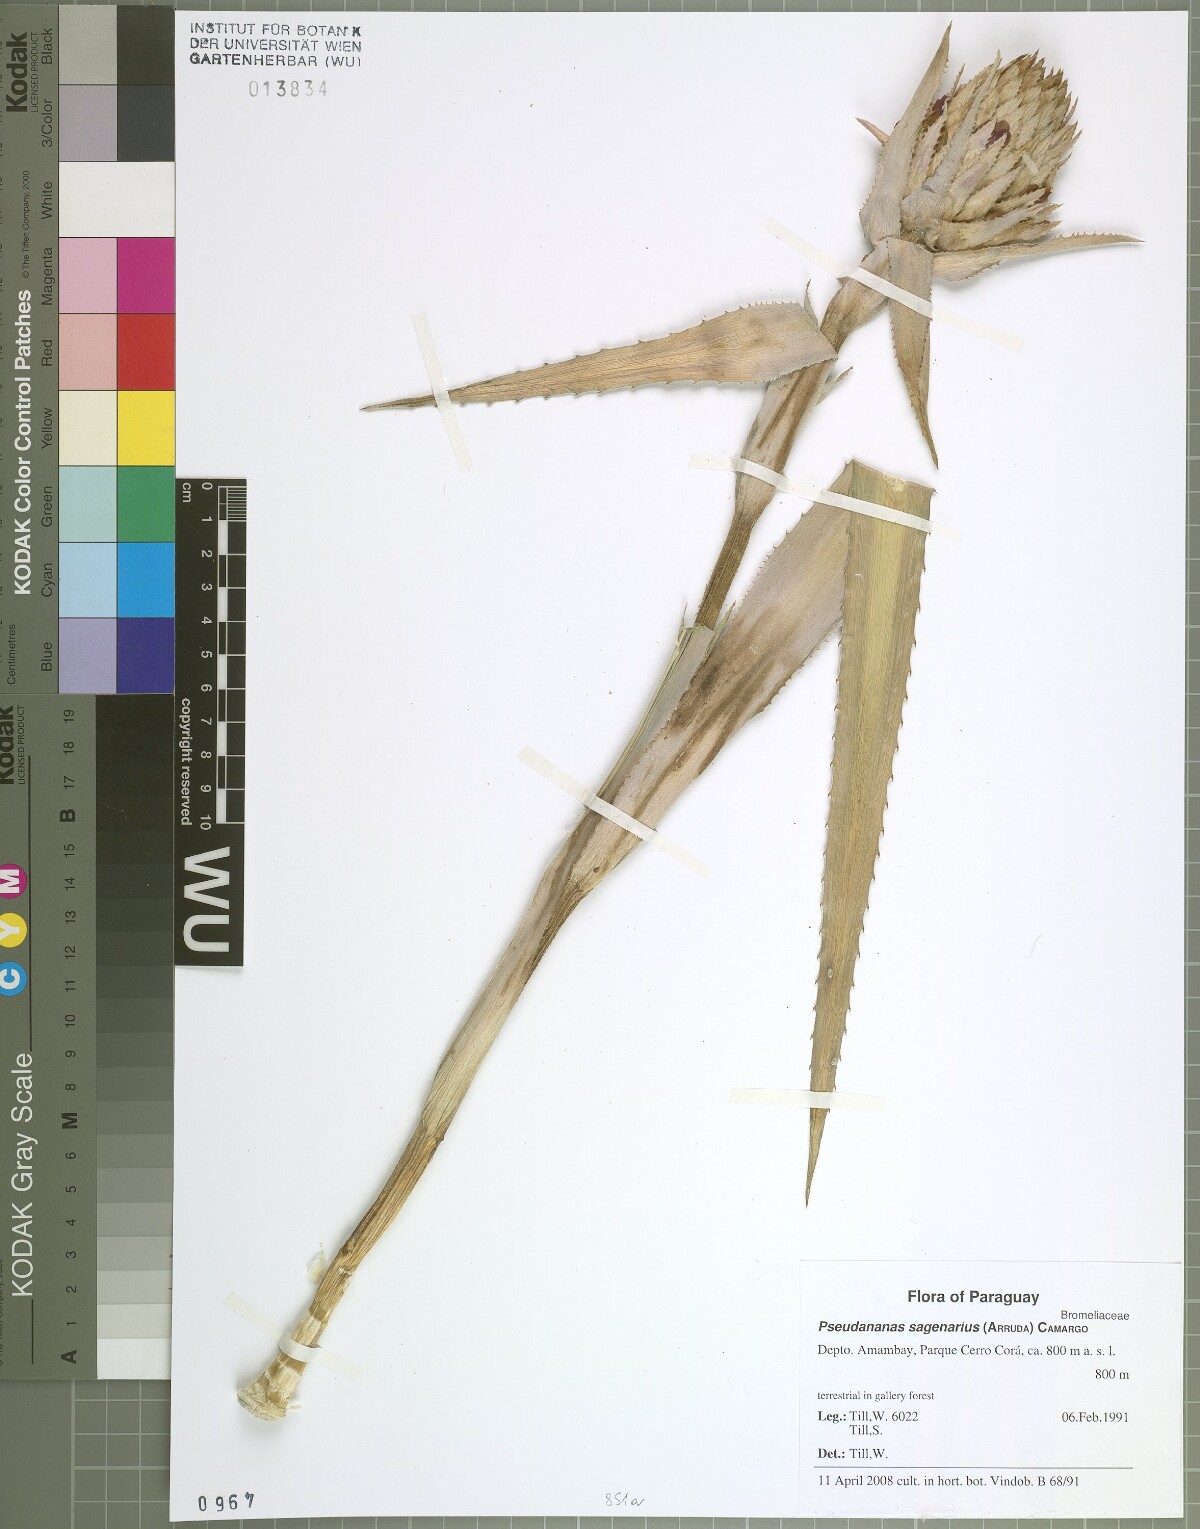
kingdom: Plantae
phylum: Tracheophyta
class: Liliopsida
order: Poales
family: Bromeliaceae
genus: Ananas
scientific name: Ananas comosus
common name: Pineapple
